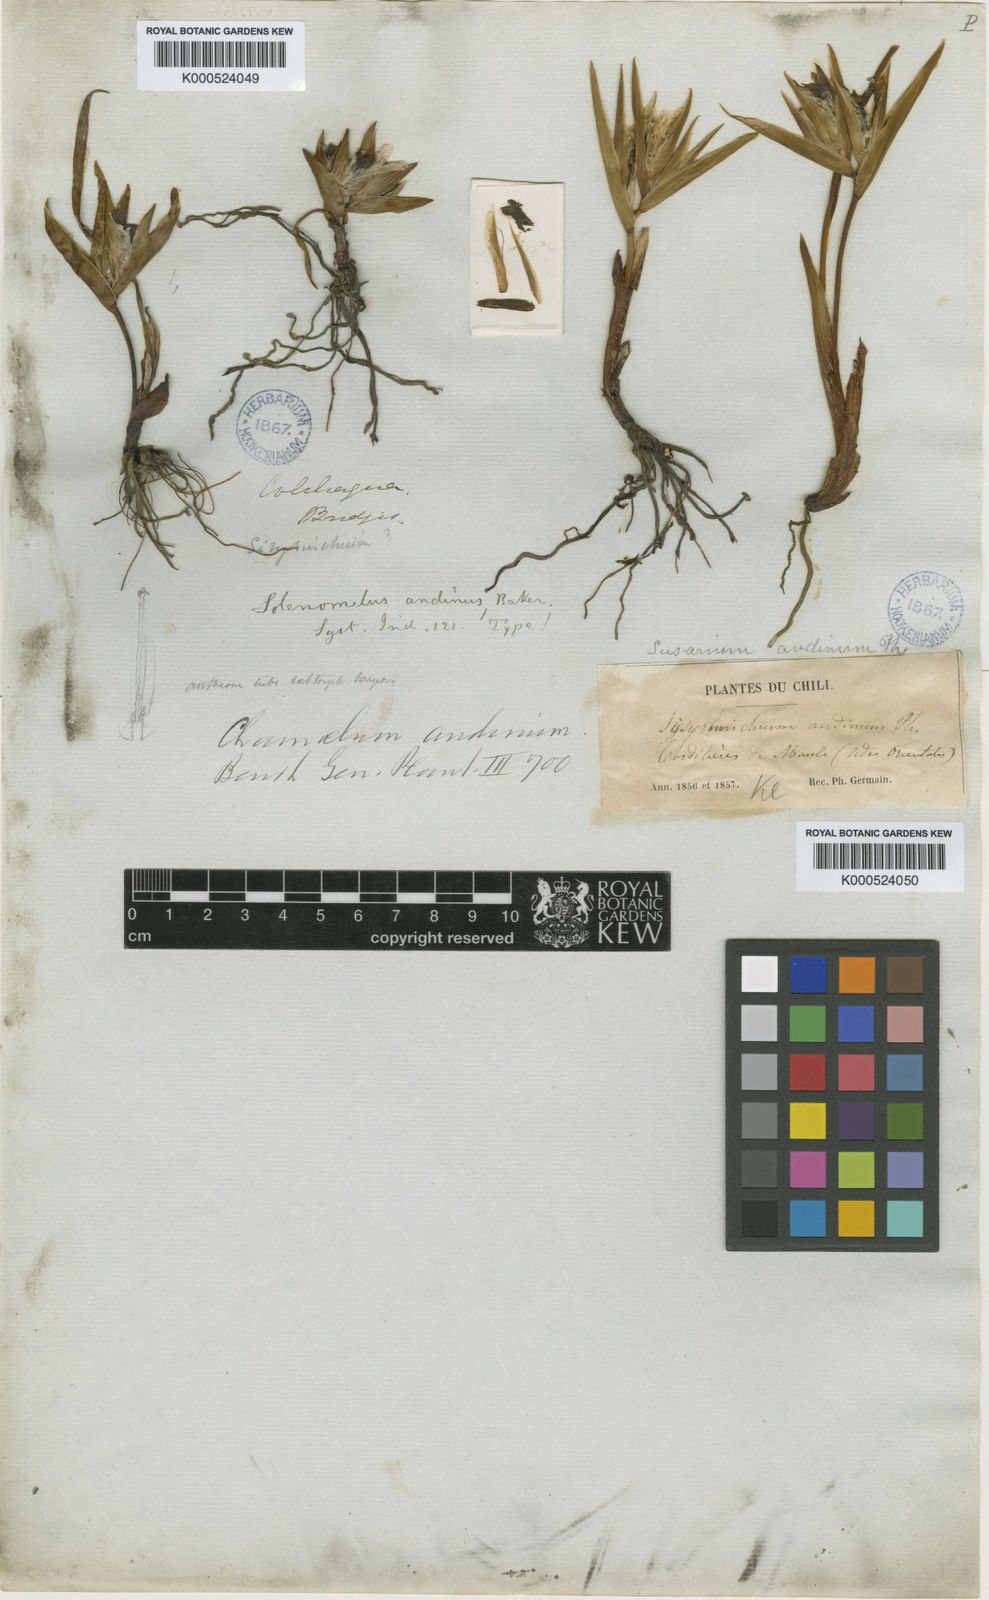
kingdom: Plantae
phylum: Tracheophyta
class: Liliopsida
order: Asparagales
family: Iridaceae
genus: Olsynium
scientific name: Olsynium obscurum
